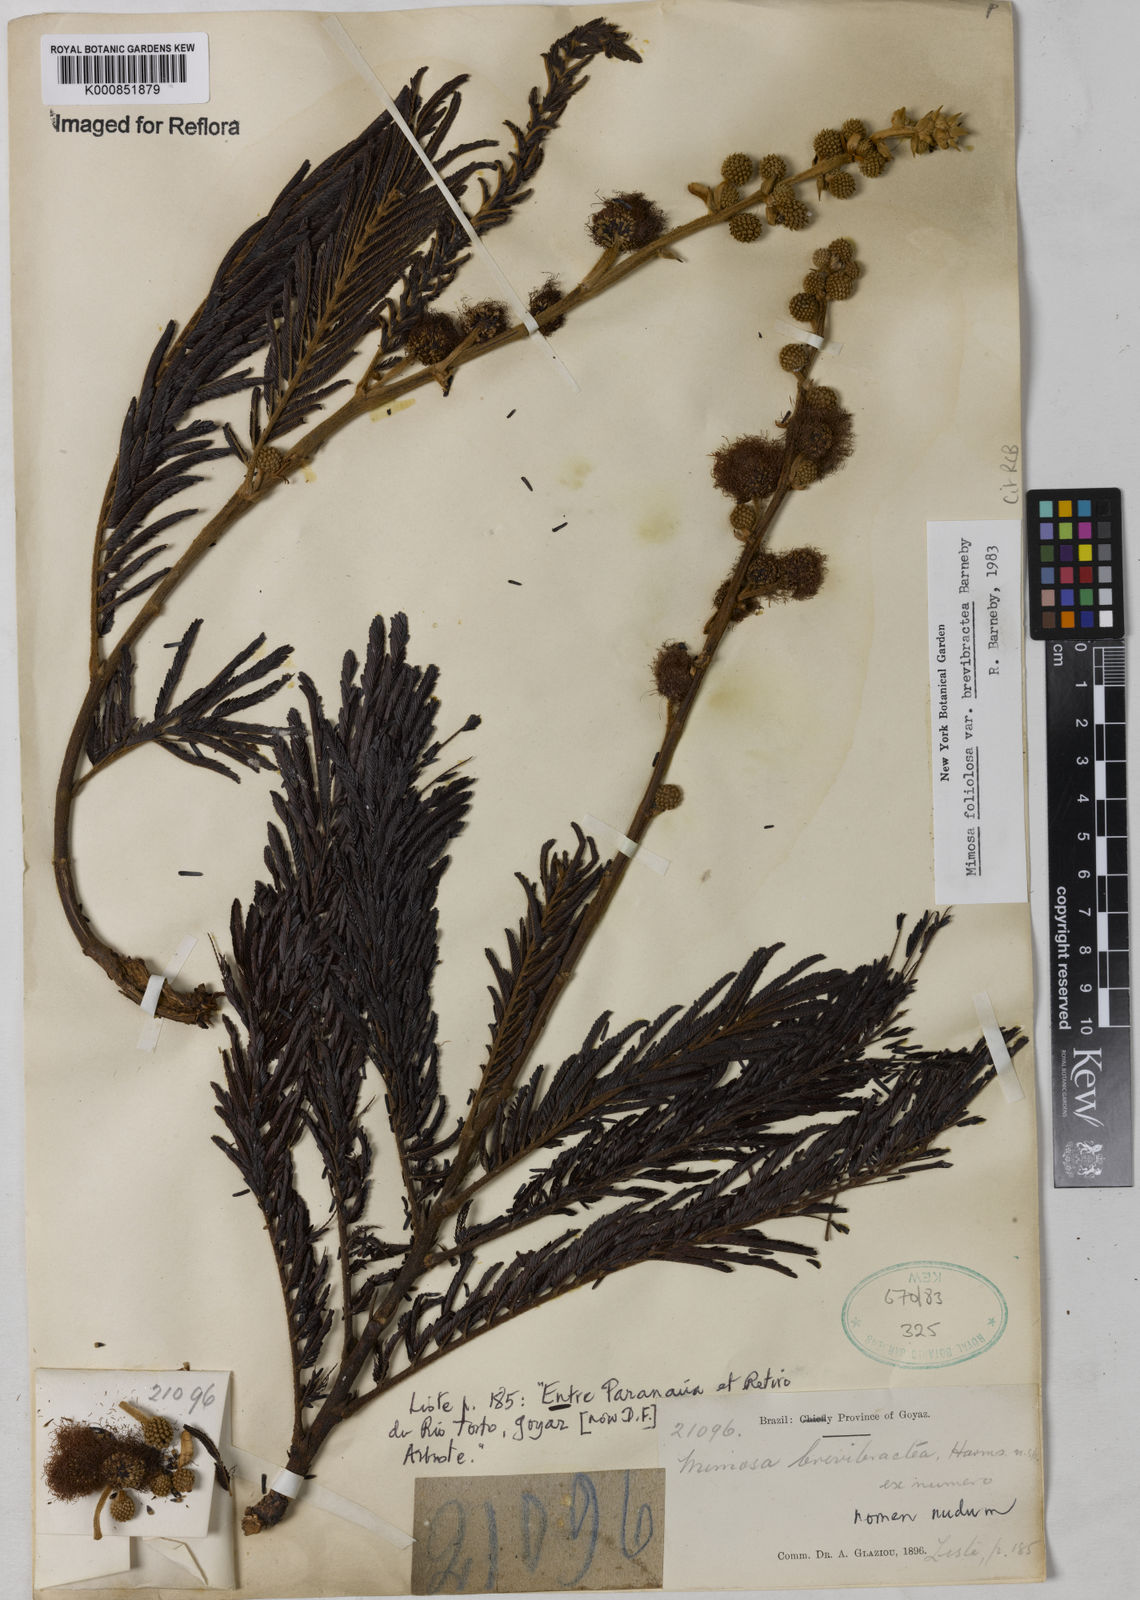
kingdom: Plantae
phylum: Tracheophyta
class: Magnoliopsida
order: Fabales
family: Fabaceae
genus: Mimosa
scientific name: Mimosa foliolosa
